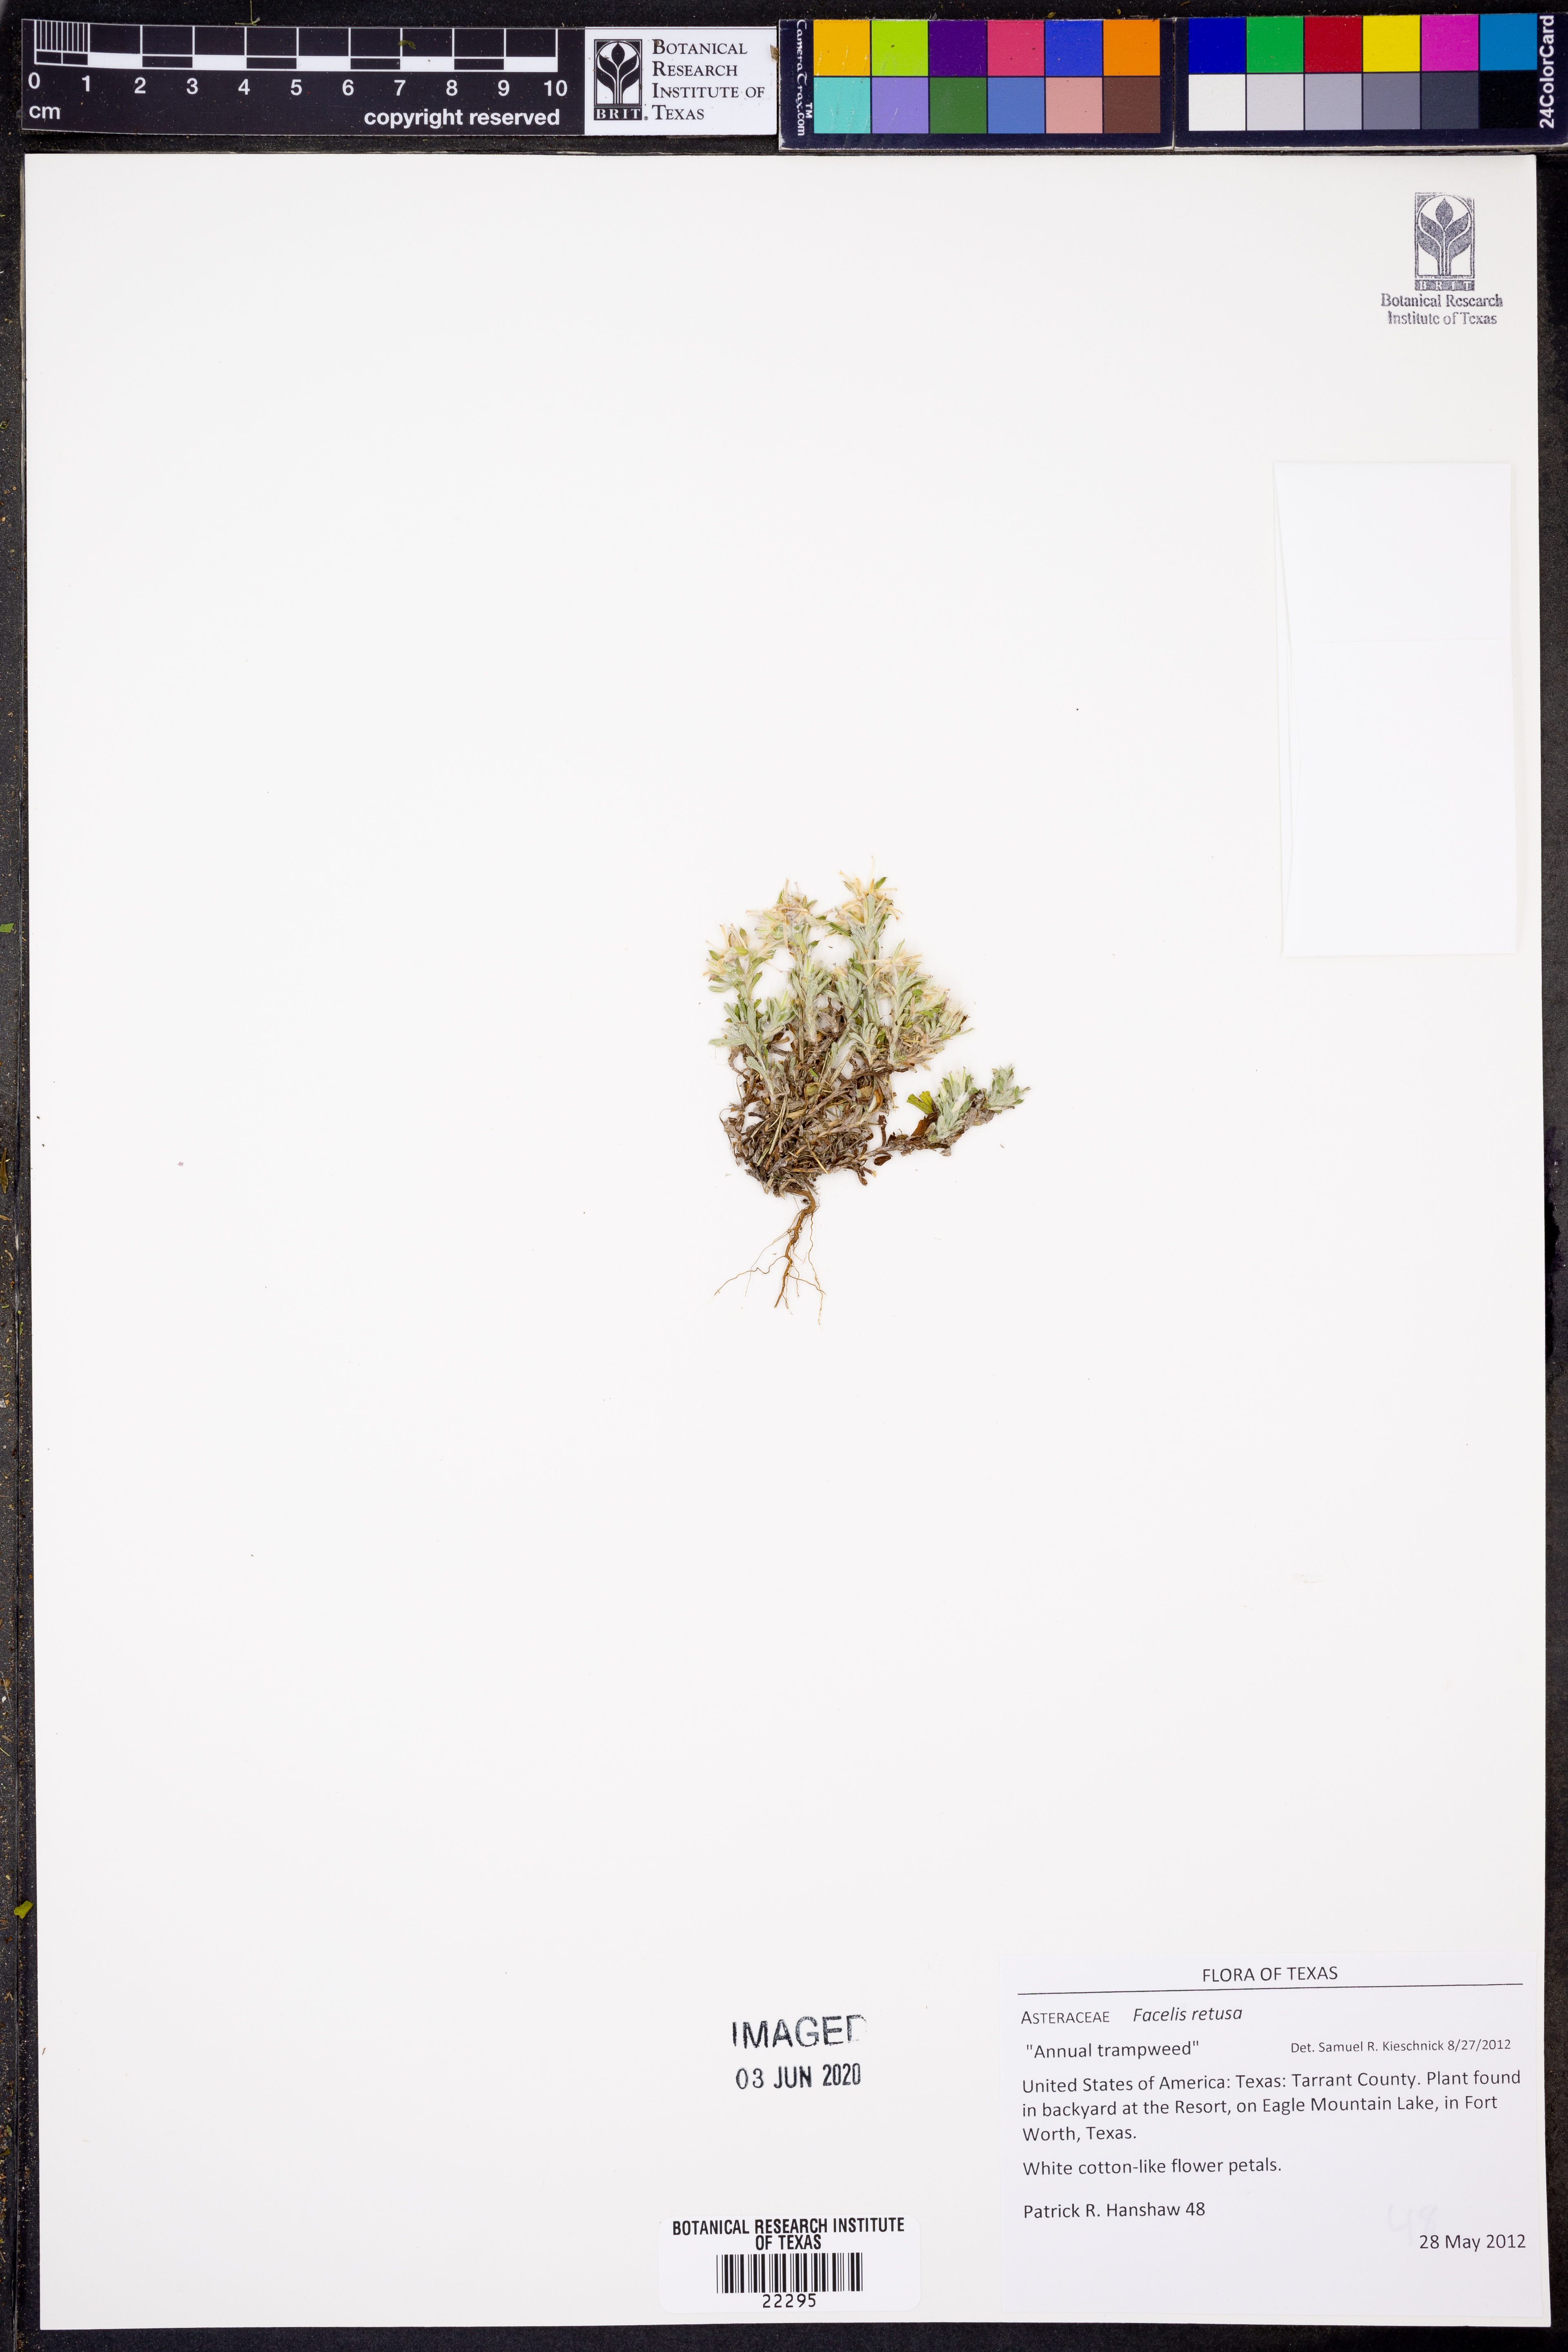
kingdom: Plantae
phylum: Tracheophyta
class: Magnoliopsida
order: Asterales
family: Asteraceae
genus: Facelis
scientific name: Facelis retusa
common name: Annual trampweed
